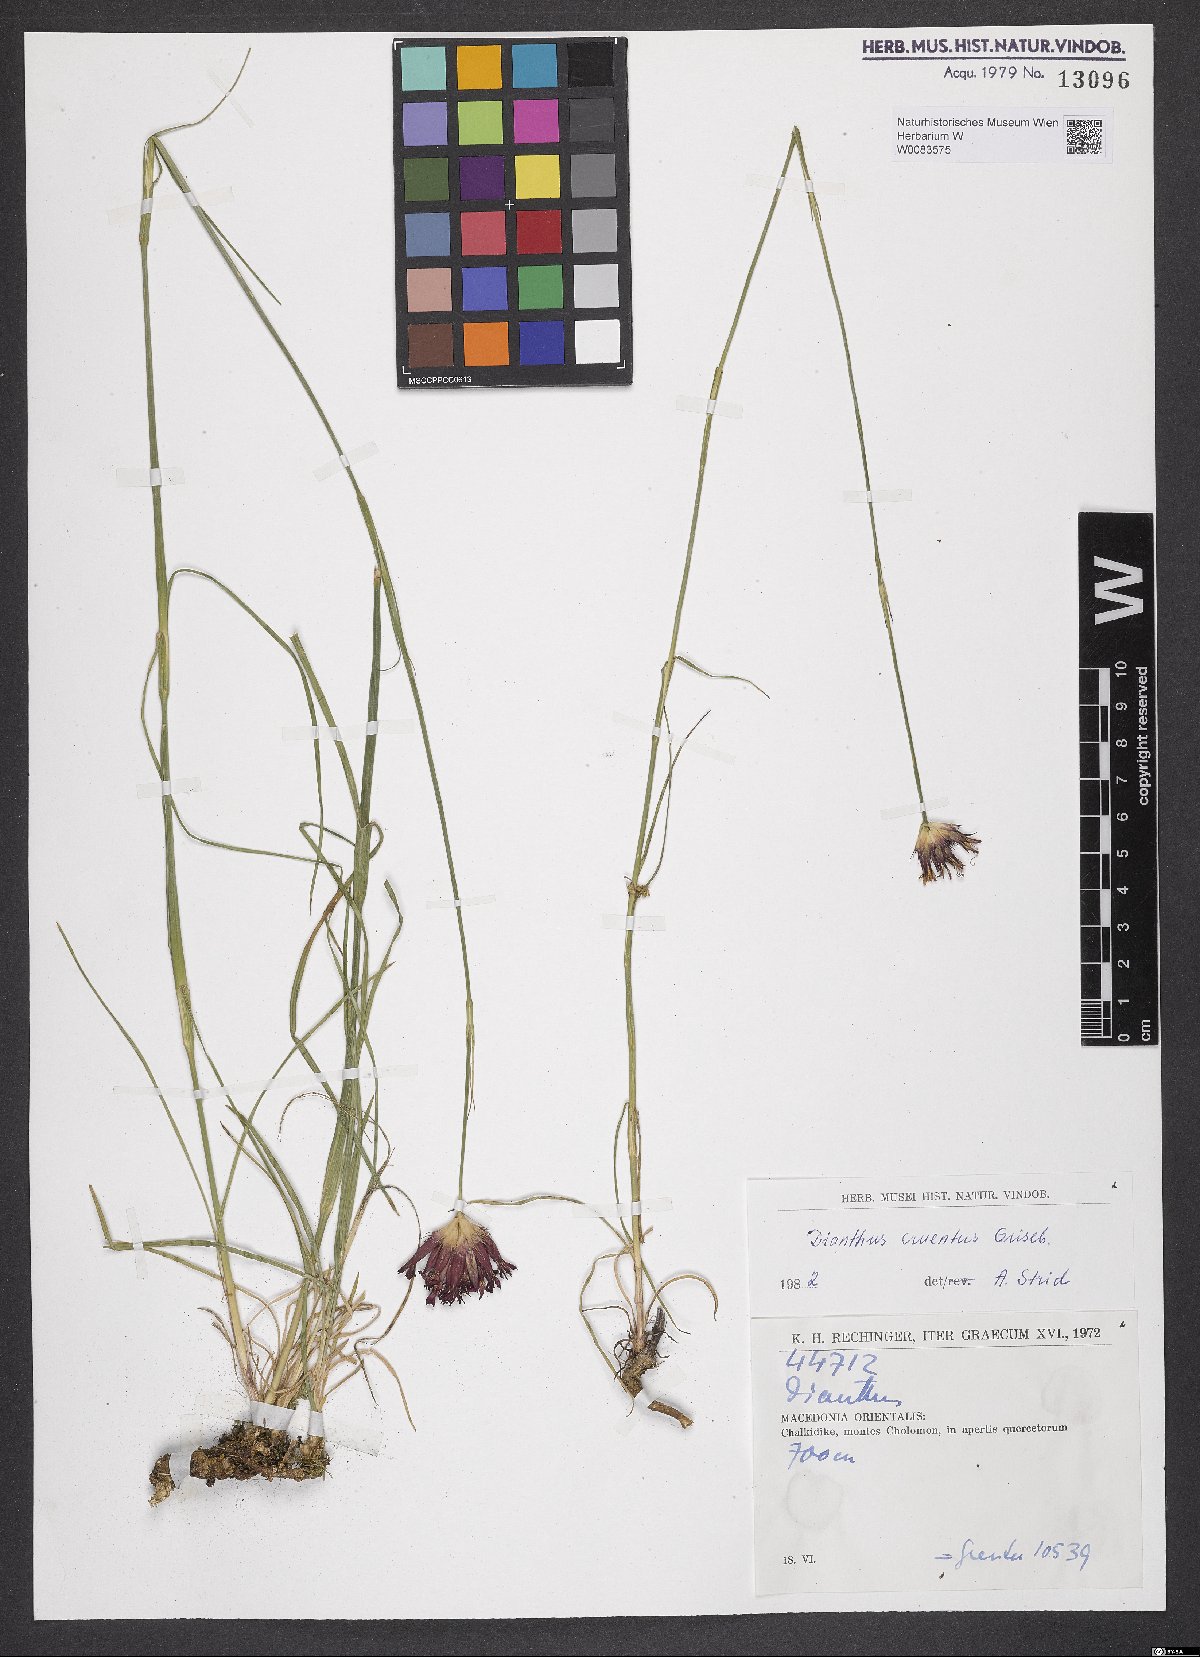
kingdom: Plantae
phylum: Tracheophyta
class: Magnoliopsida
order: Caryophyllales
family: Caryophyllaceae
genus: Dianthus
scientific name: Dianthus cruentus
